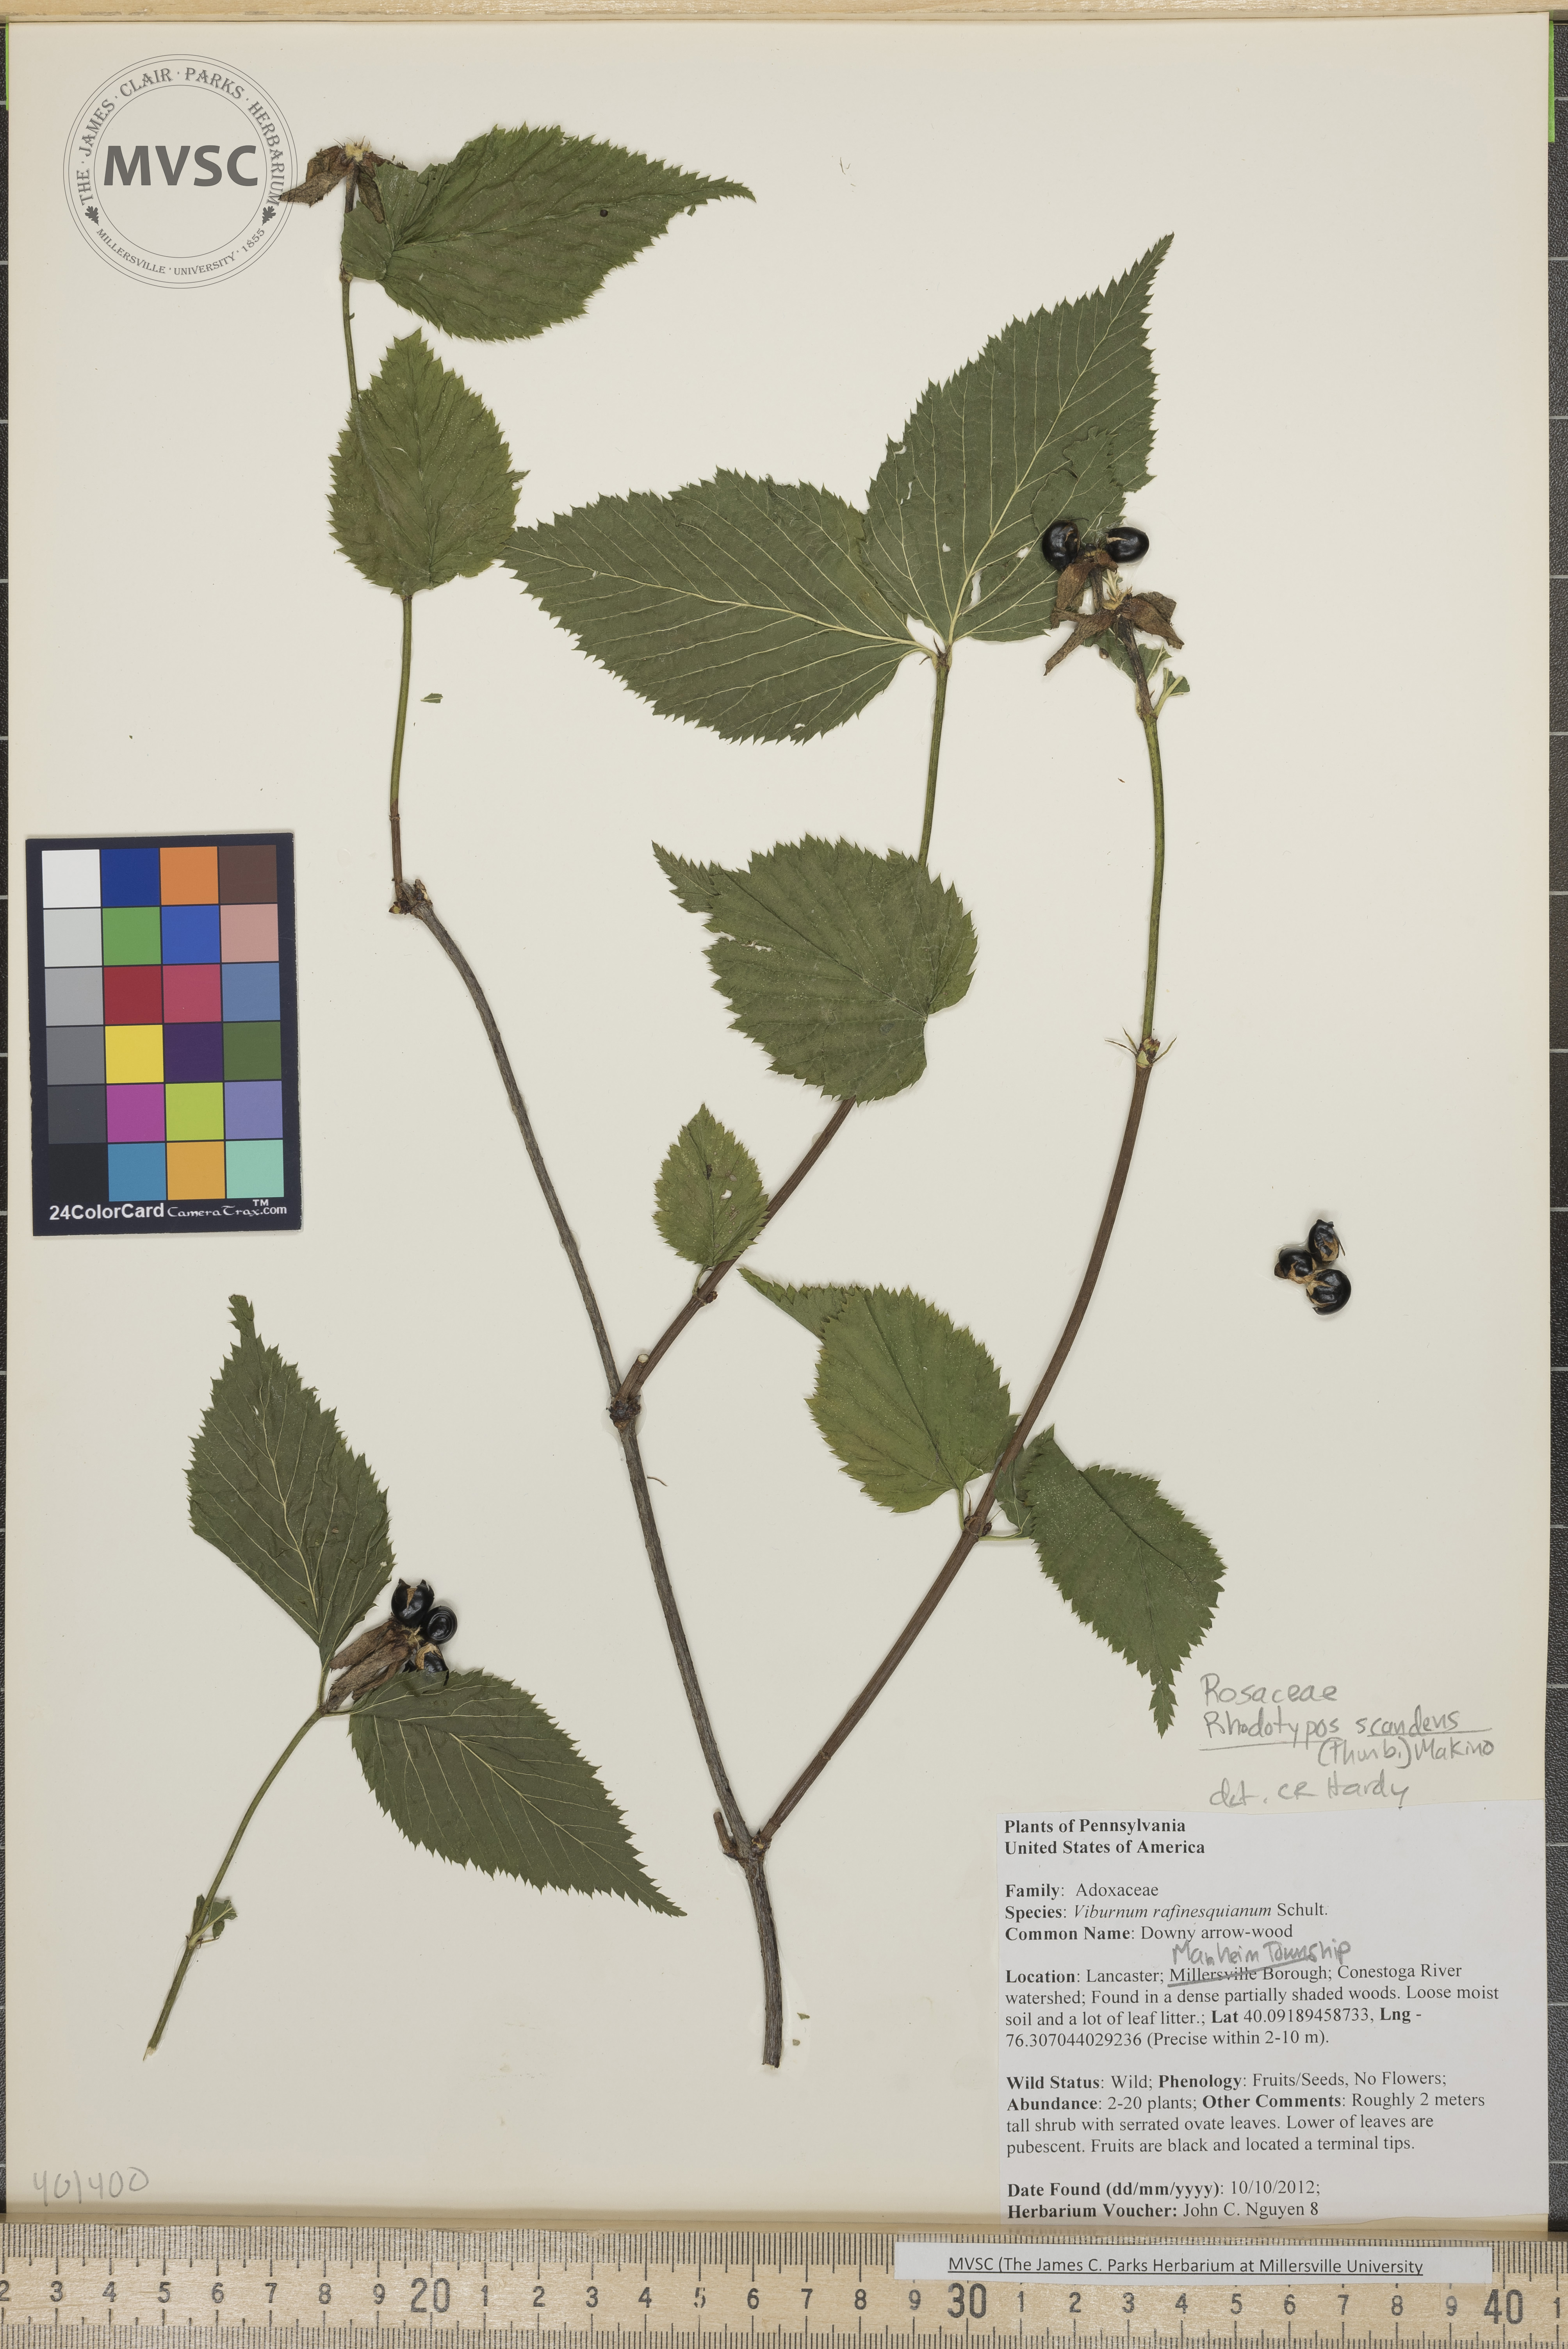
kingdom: Plantae
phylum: Tracheophyta
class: Magnoliopsida
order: Rosales
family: Rosaceae
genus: Rhodotypos
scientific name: Rhodotypos scandens
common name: Jetbead
